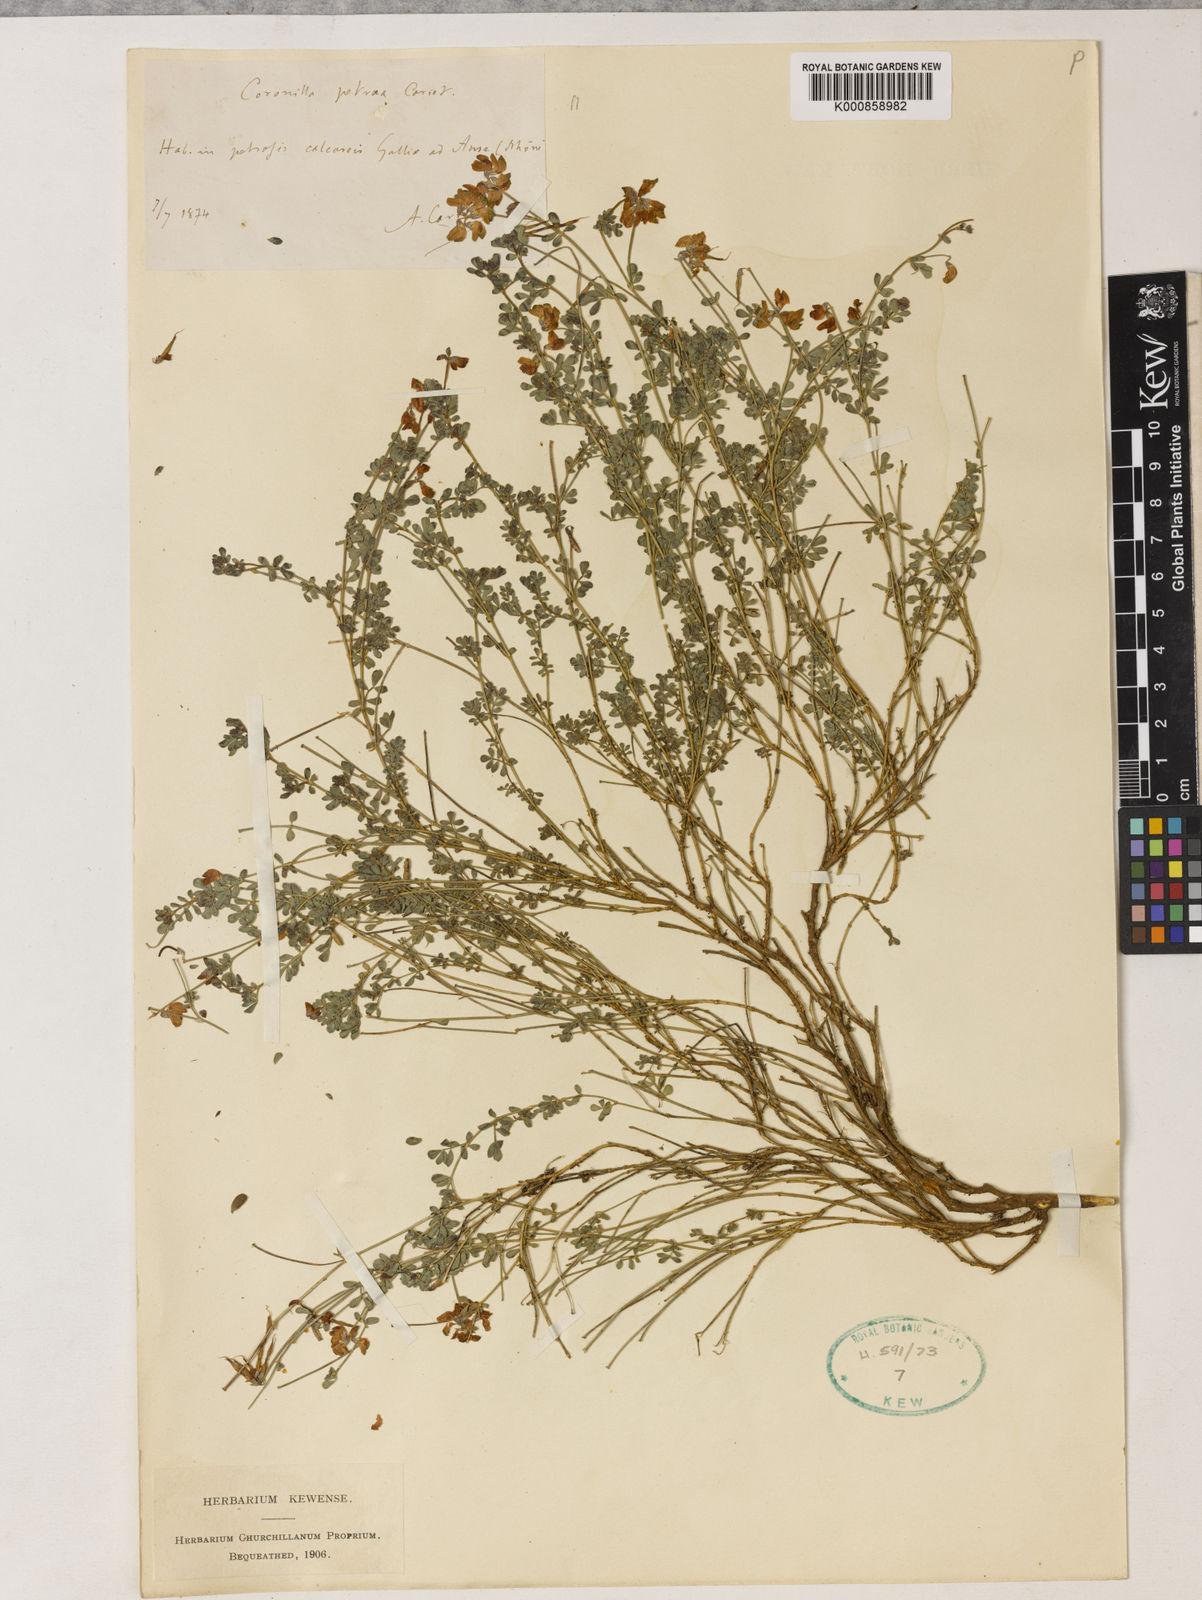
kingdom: Plantae
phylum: Tracheophyta
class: Magnoliopsida
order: Fabales
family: Fabaceae
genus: Coronilla
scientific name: Coronilla minima
